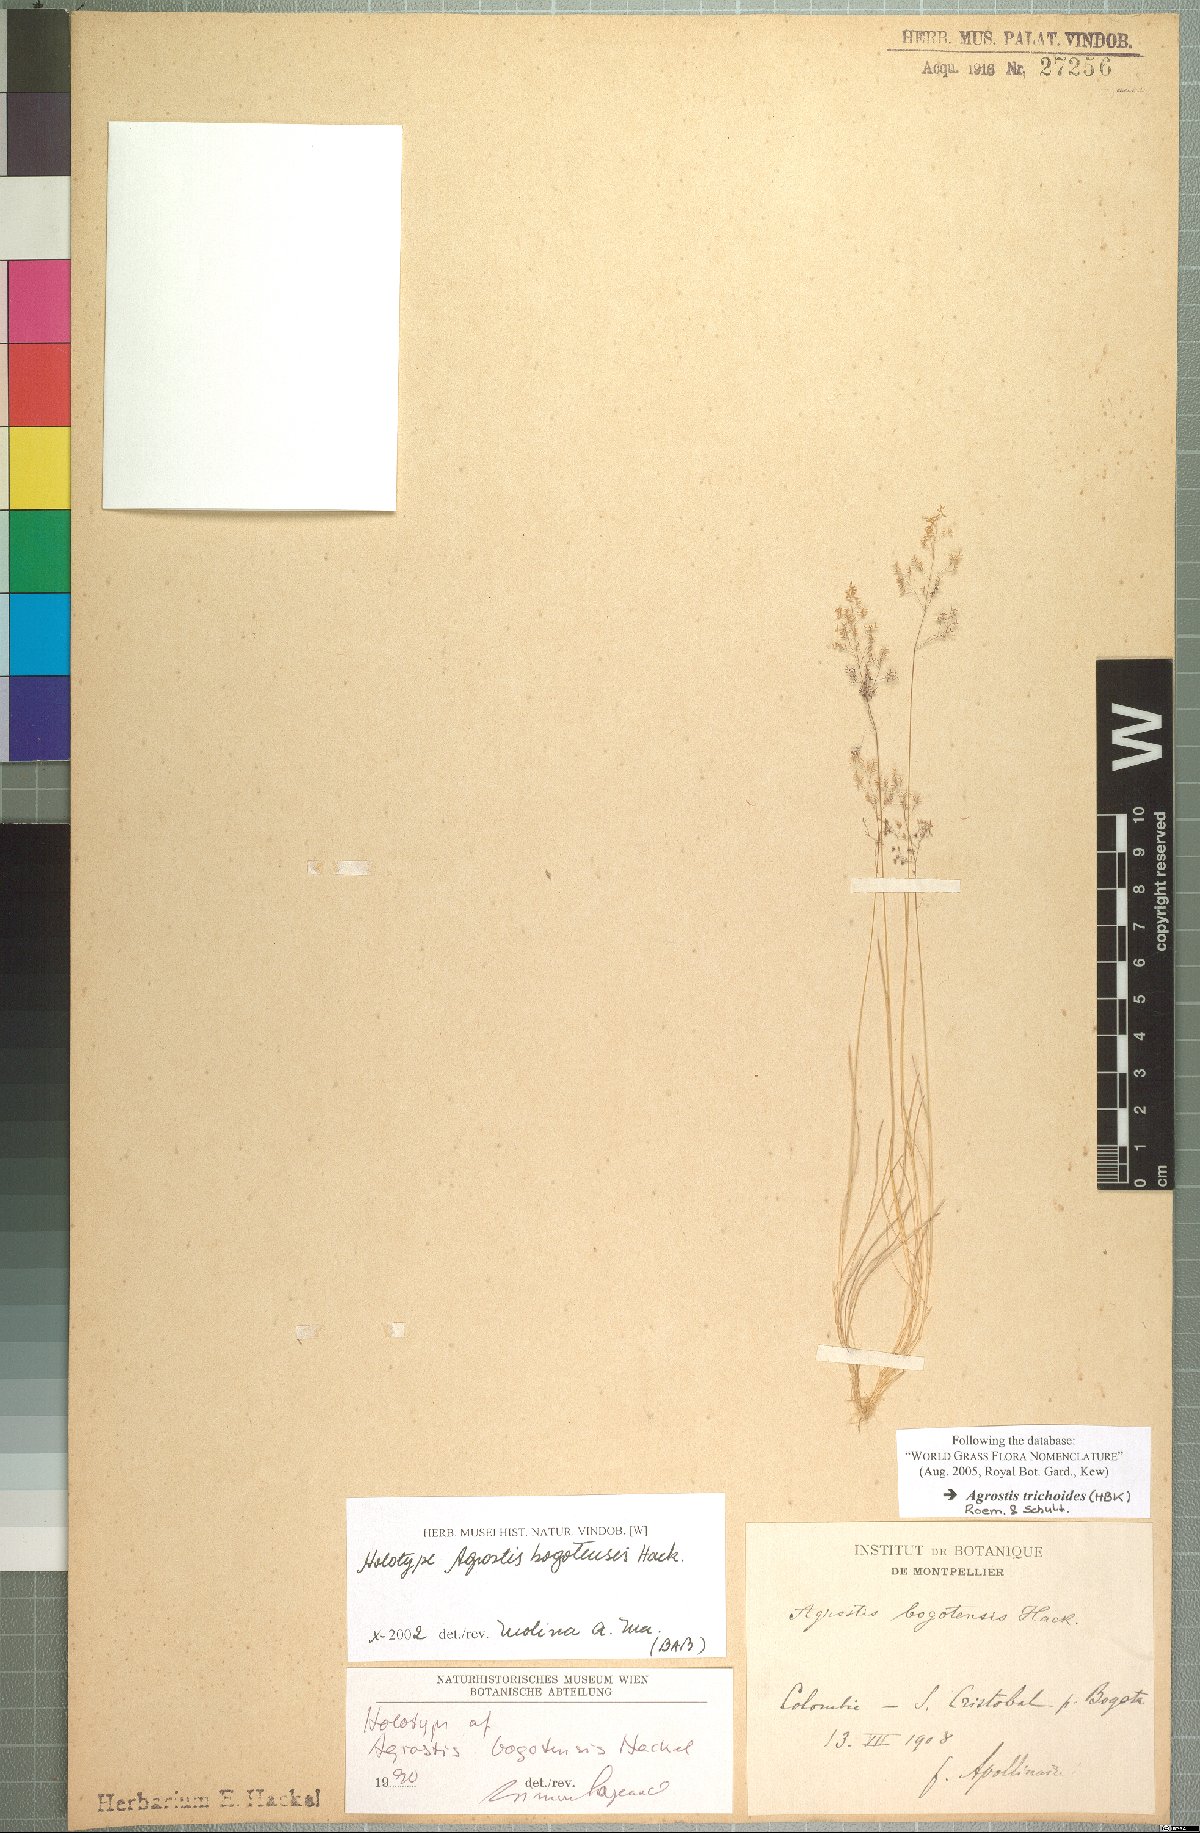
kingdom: Plantae
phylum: Tracheophyta
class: Liliopsida
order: Poales
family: Poaceae
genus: Podagrostis
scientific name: Podagrostis trichodes
